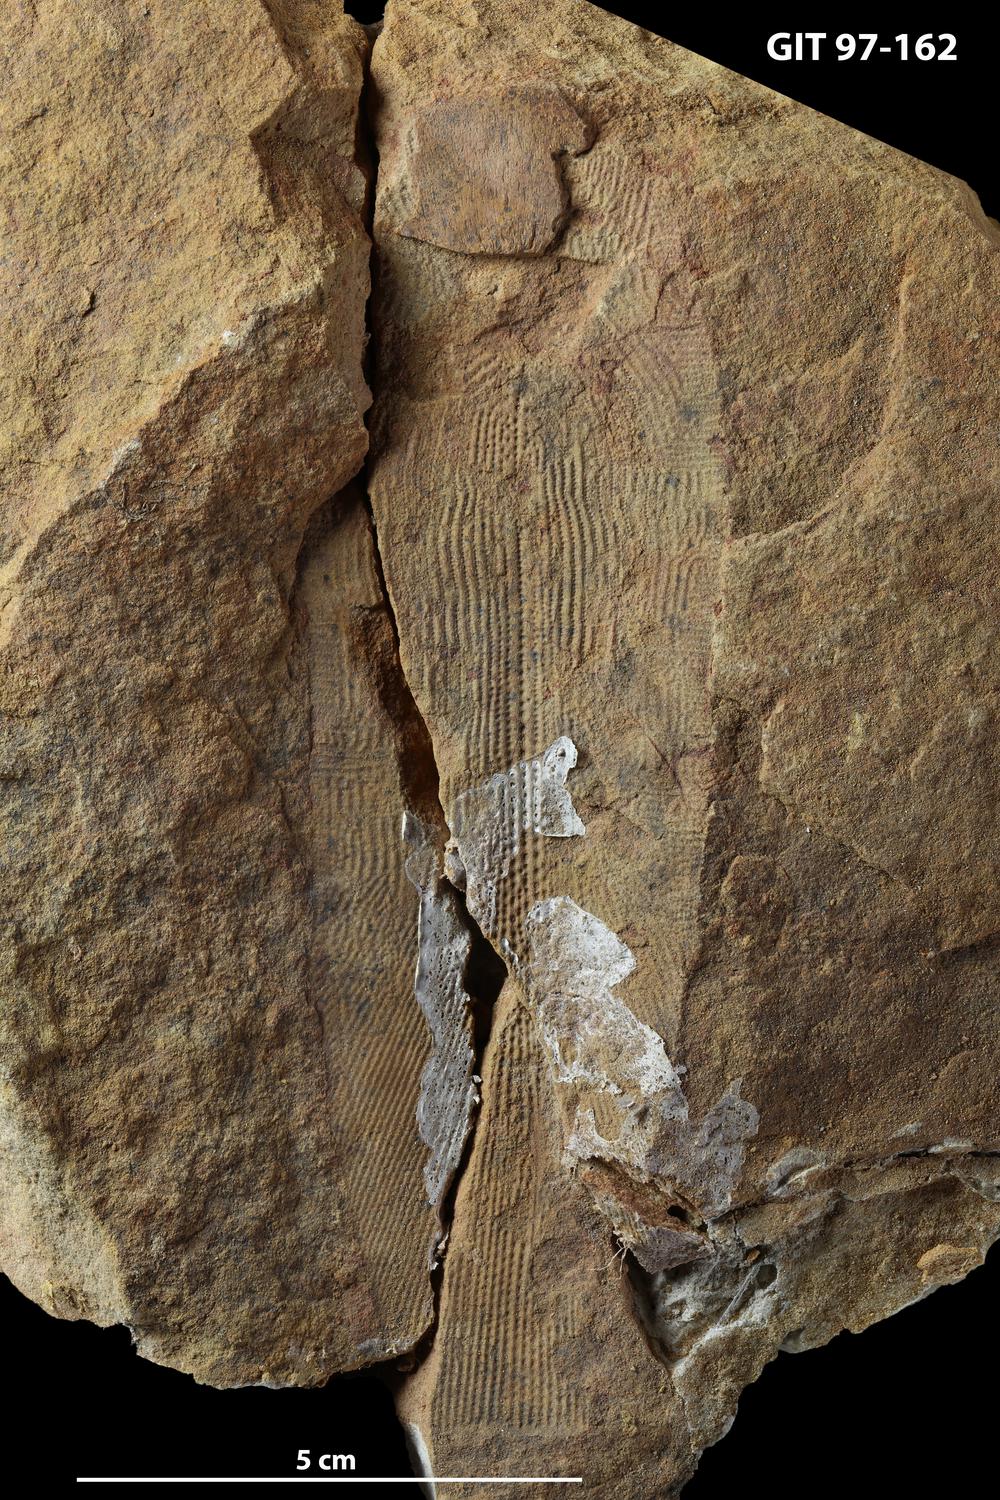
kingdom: Animalia
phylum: Chordata
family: Holonematidae
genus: Holonema
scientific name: Holonema
